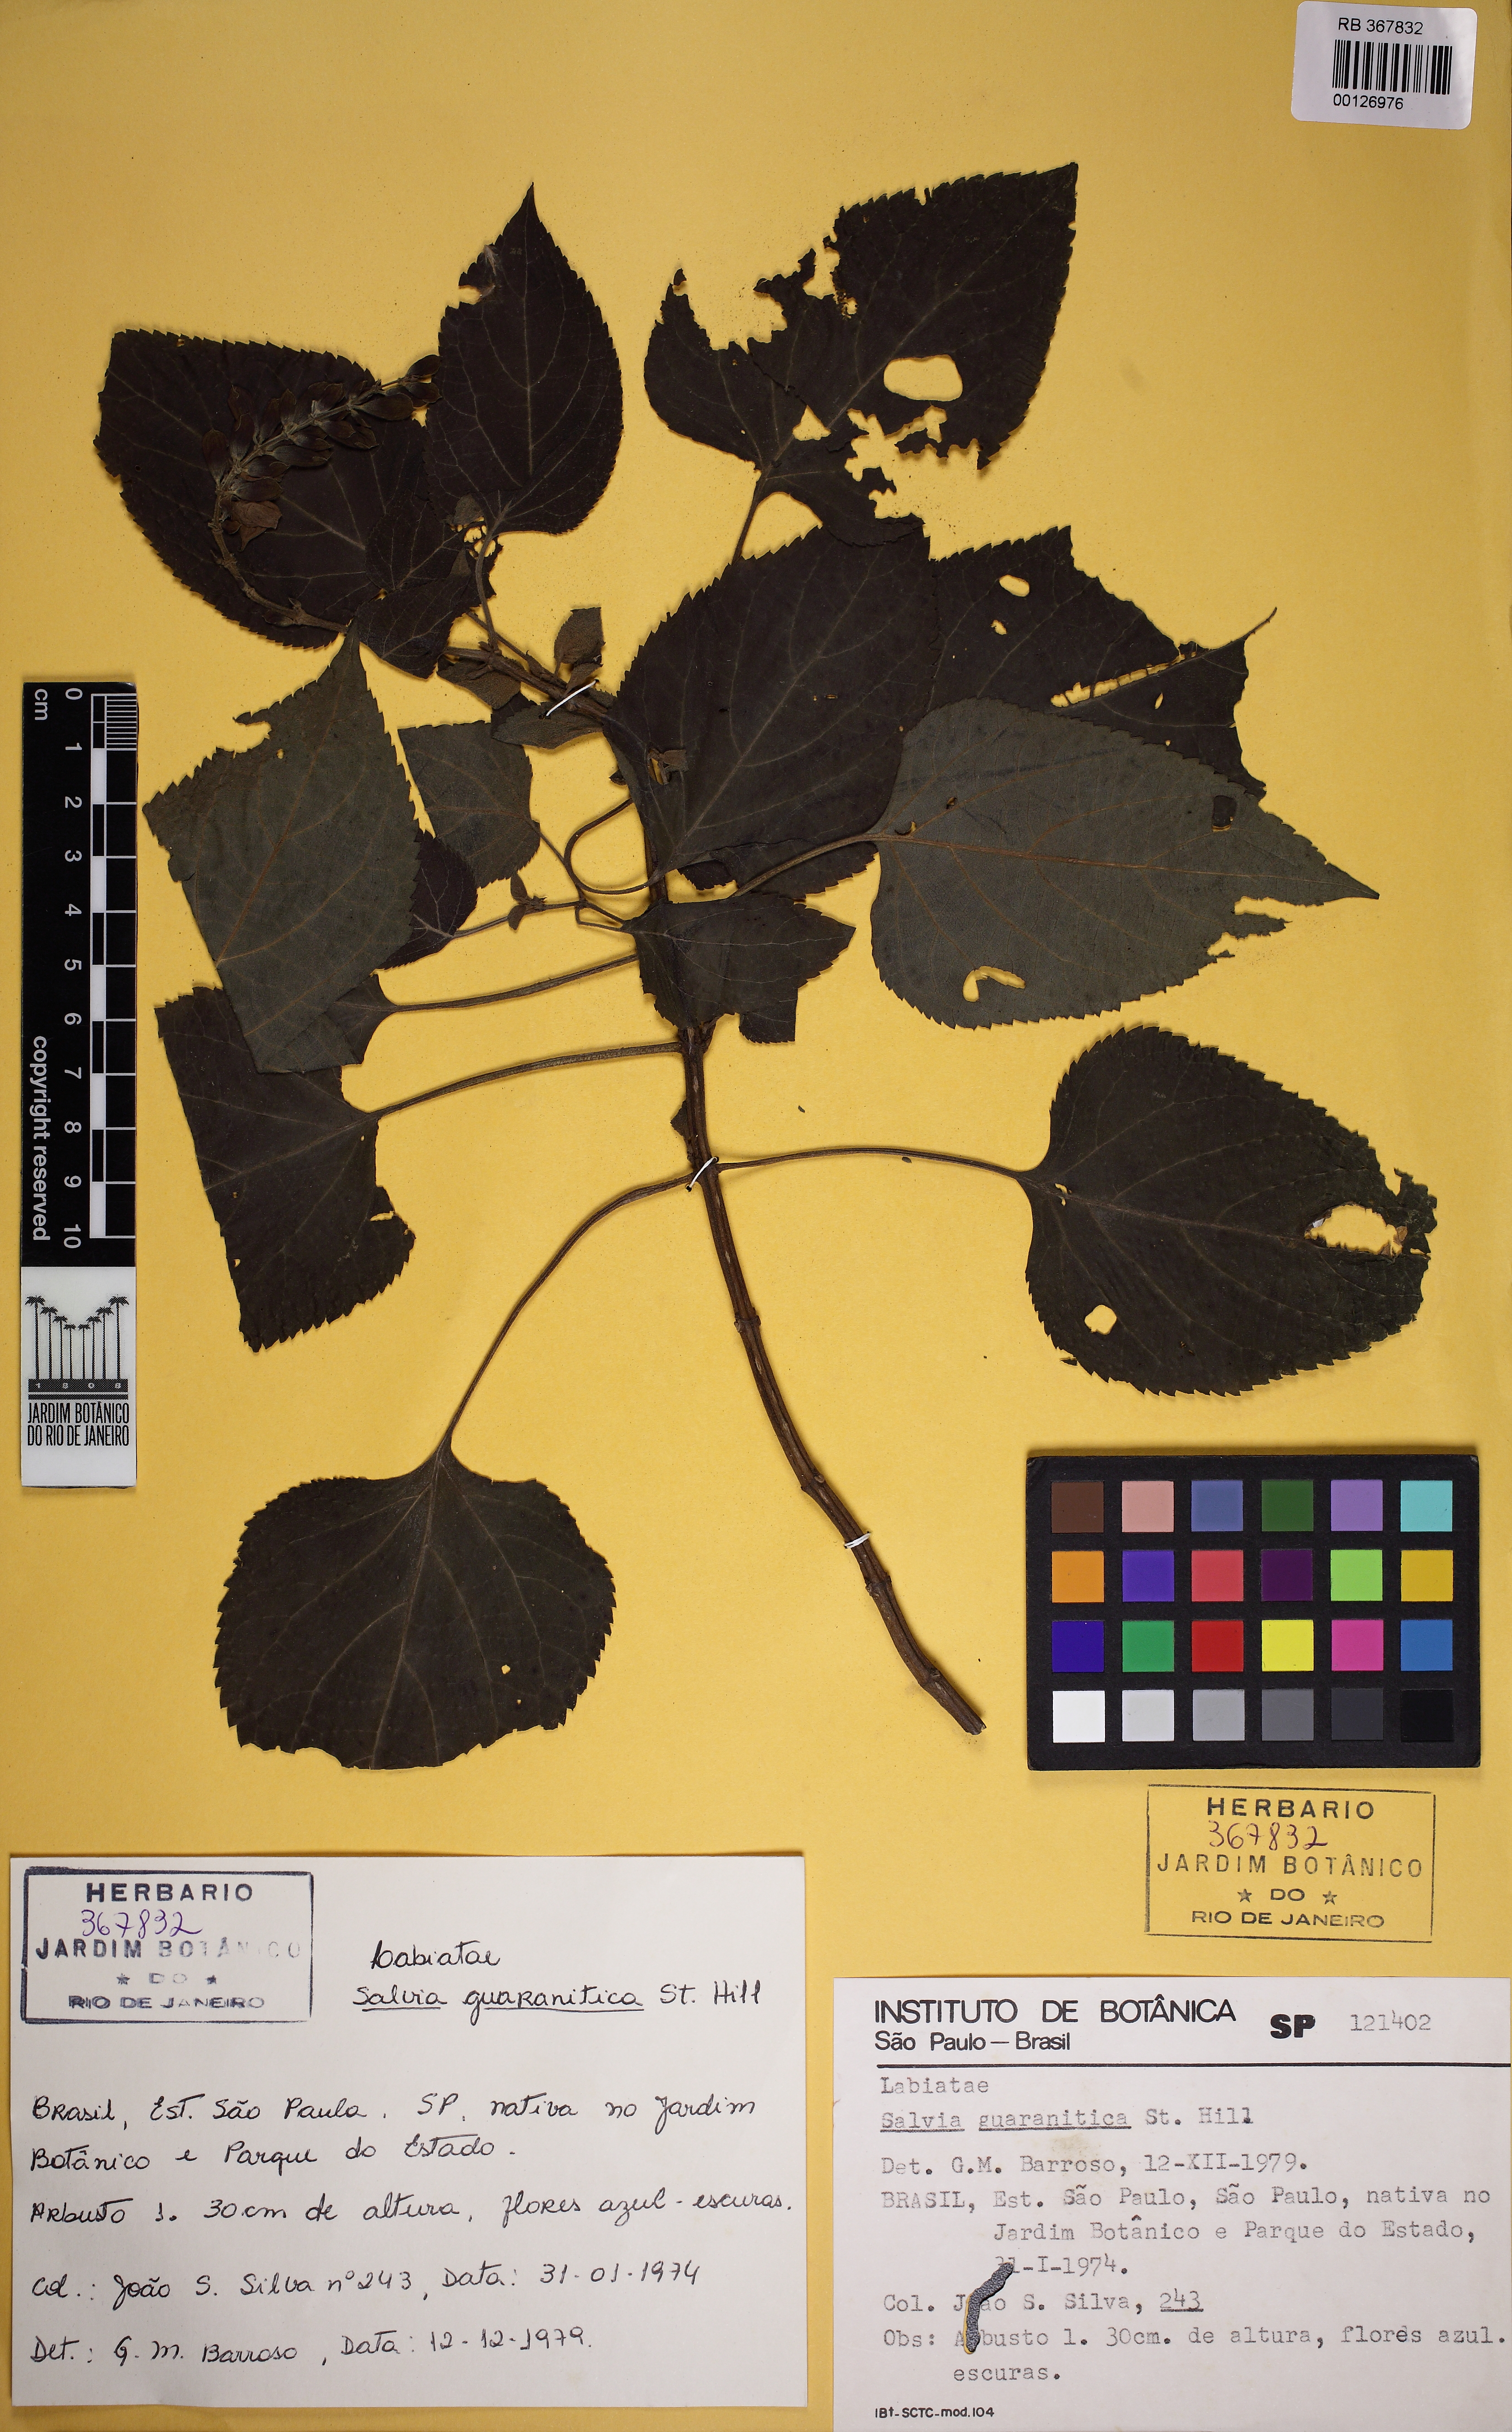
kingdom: Plantae
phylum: Tracheophyta
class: Magnoliopsida
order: Lamiales
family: Lamiaceae
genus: Salvia
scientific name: Salvia guaranitica
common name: Anise-scented sage
